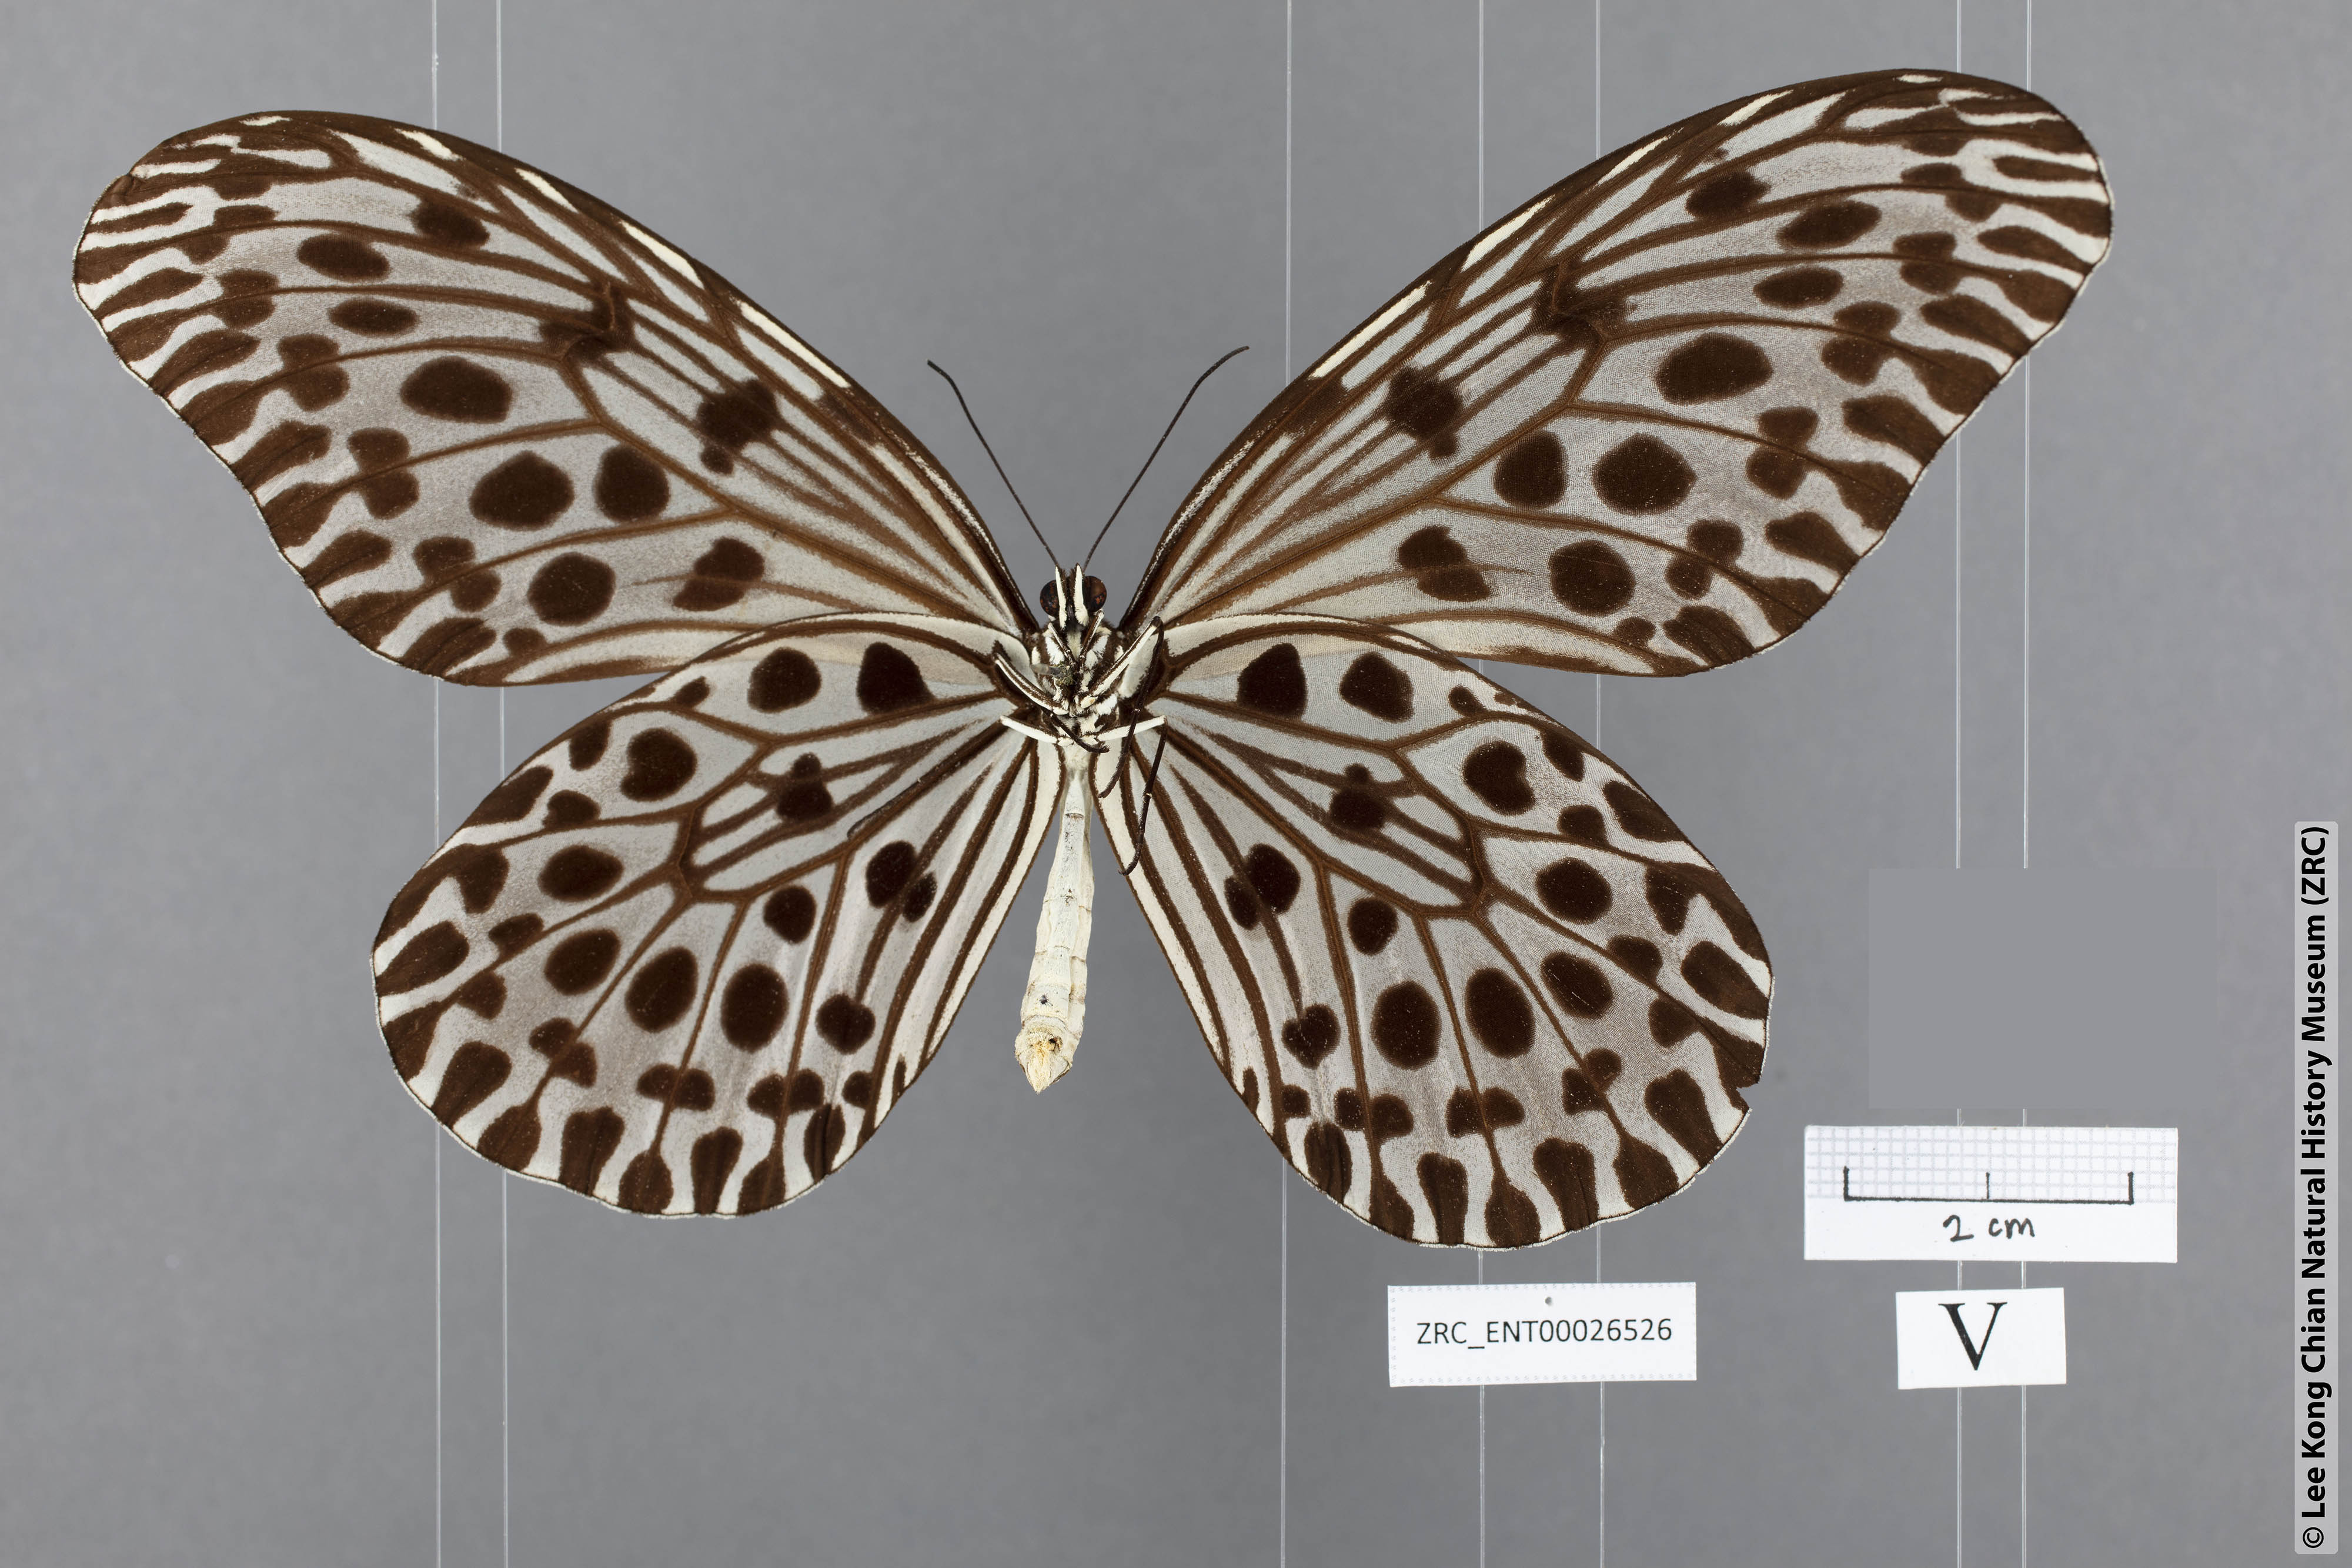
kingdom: Animalia
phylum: Arthropoda
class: Insecta
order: Lepidoptera
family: Nymphalidae
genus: Idea
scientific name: Idea lynceus
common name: Giant tree nymph
